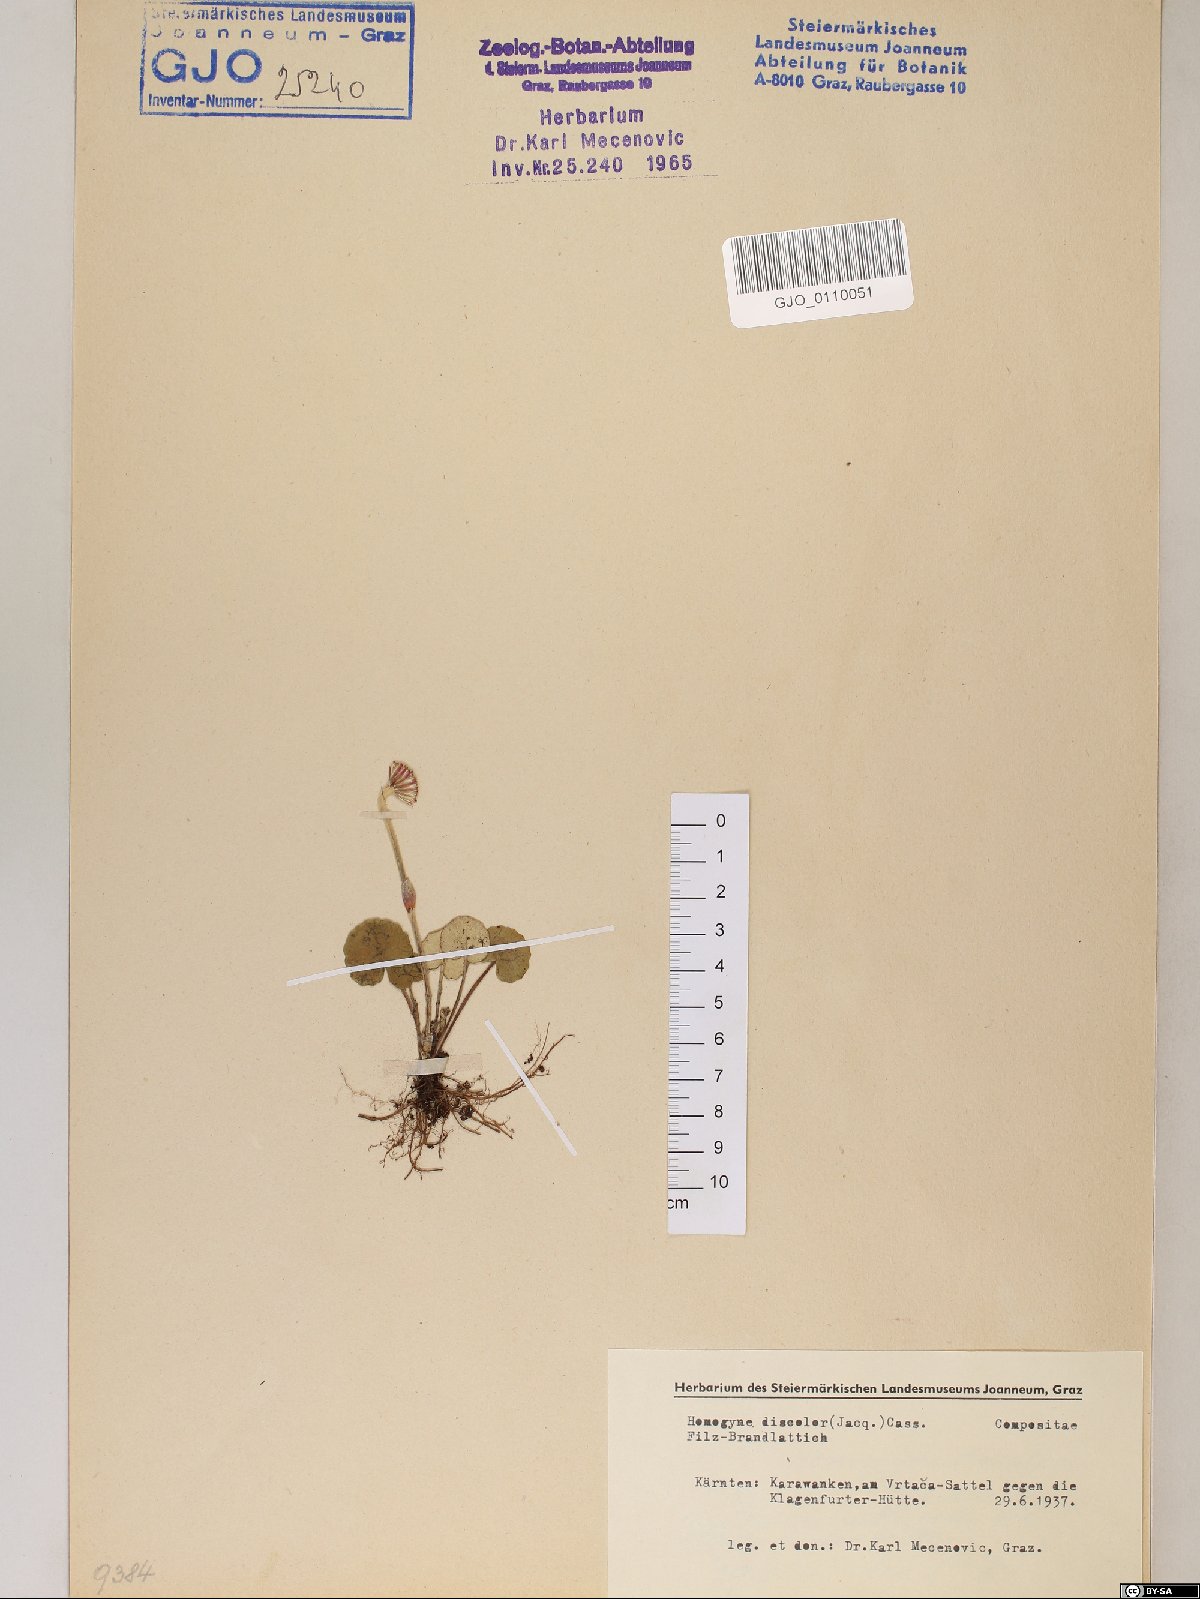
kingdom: Plantae
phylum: Tracheophyta
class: Magnoliopsida
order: Asterales
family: Asteraceae
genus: Homogyne
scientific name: Homogyne discolor
